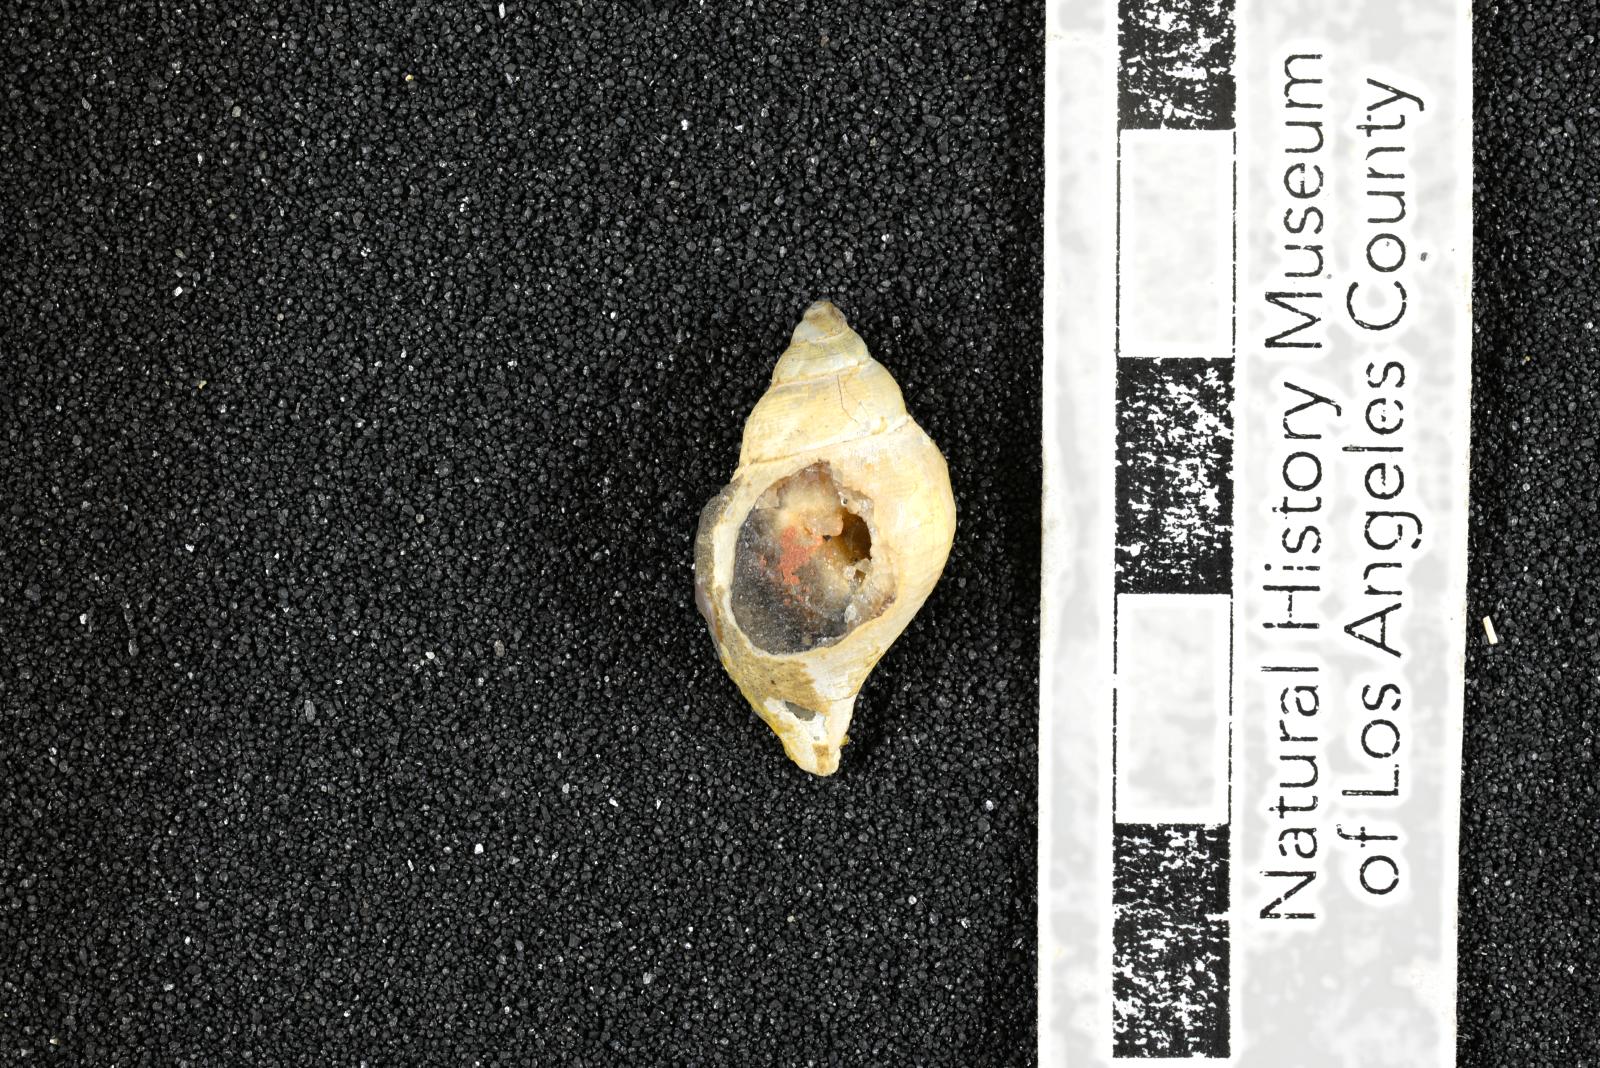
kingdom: Animalia
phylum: Mollusca
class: Gastropoda
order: Littorinimorpha
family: Aporrhaidae
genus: Lispodesthes
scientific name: Lispodesthes Pugnellus rotundus
